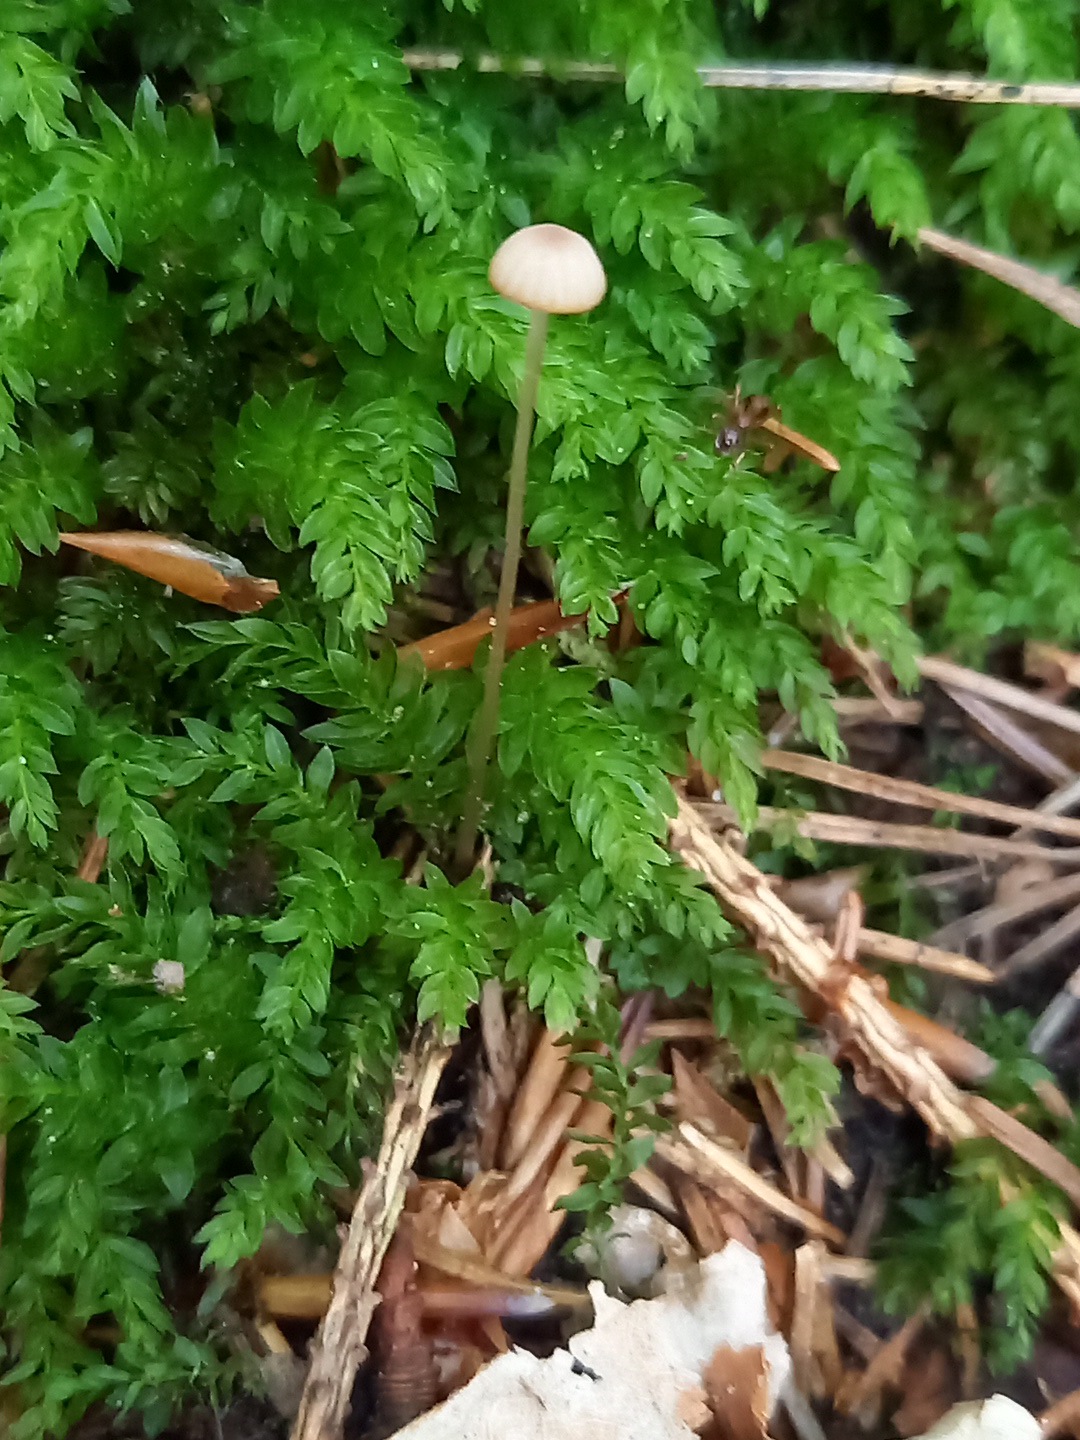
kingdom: Fungi
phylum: Basidiomycota
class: Agaricomycetes
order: Agaricales
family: Mycenaceae
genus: Mycena
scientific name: Mycena
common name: huesvamp
